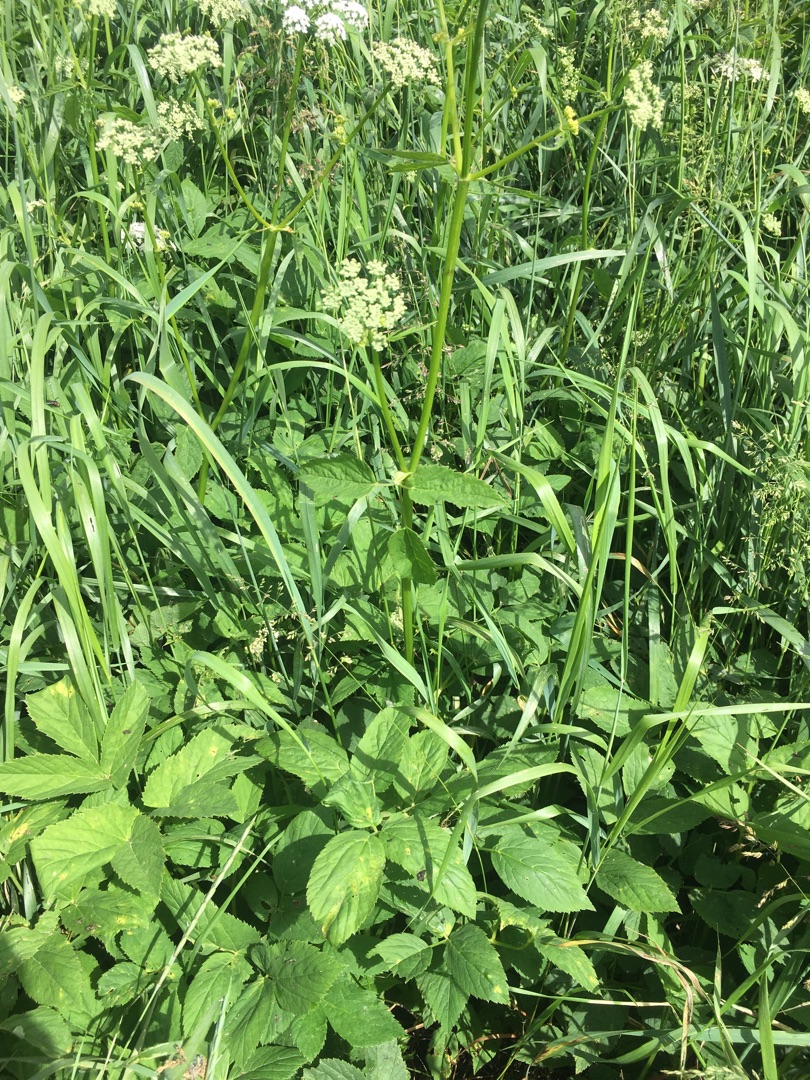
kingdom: Plantae
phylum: Tracheophyta
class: Magnoliopsida
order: Apiales
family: Apiaceae
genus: Aegopodium
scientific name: Aegopodium podagraria
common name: Skvalderkål
